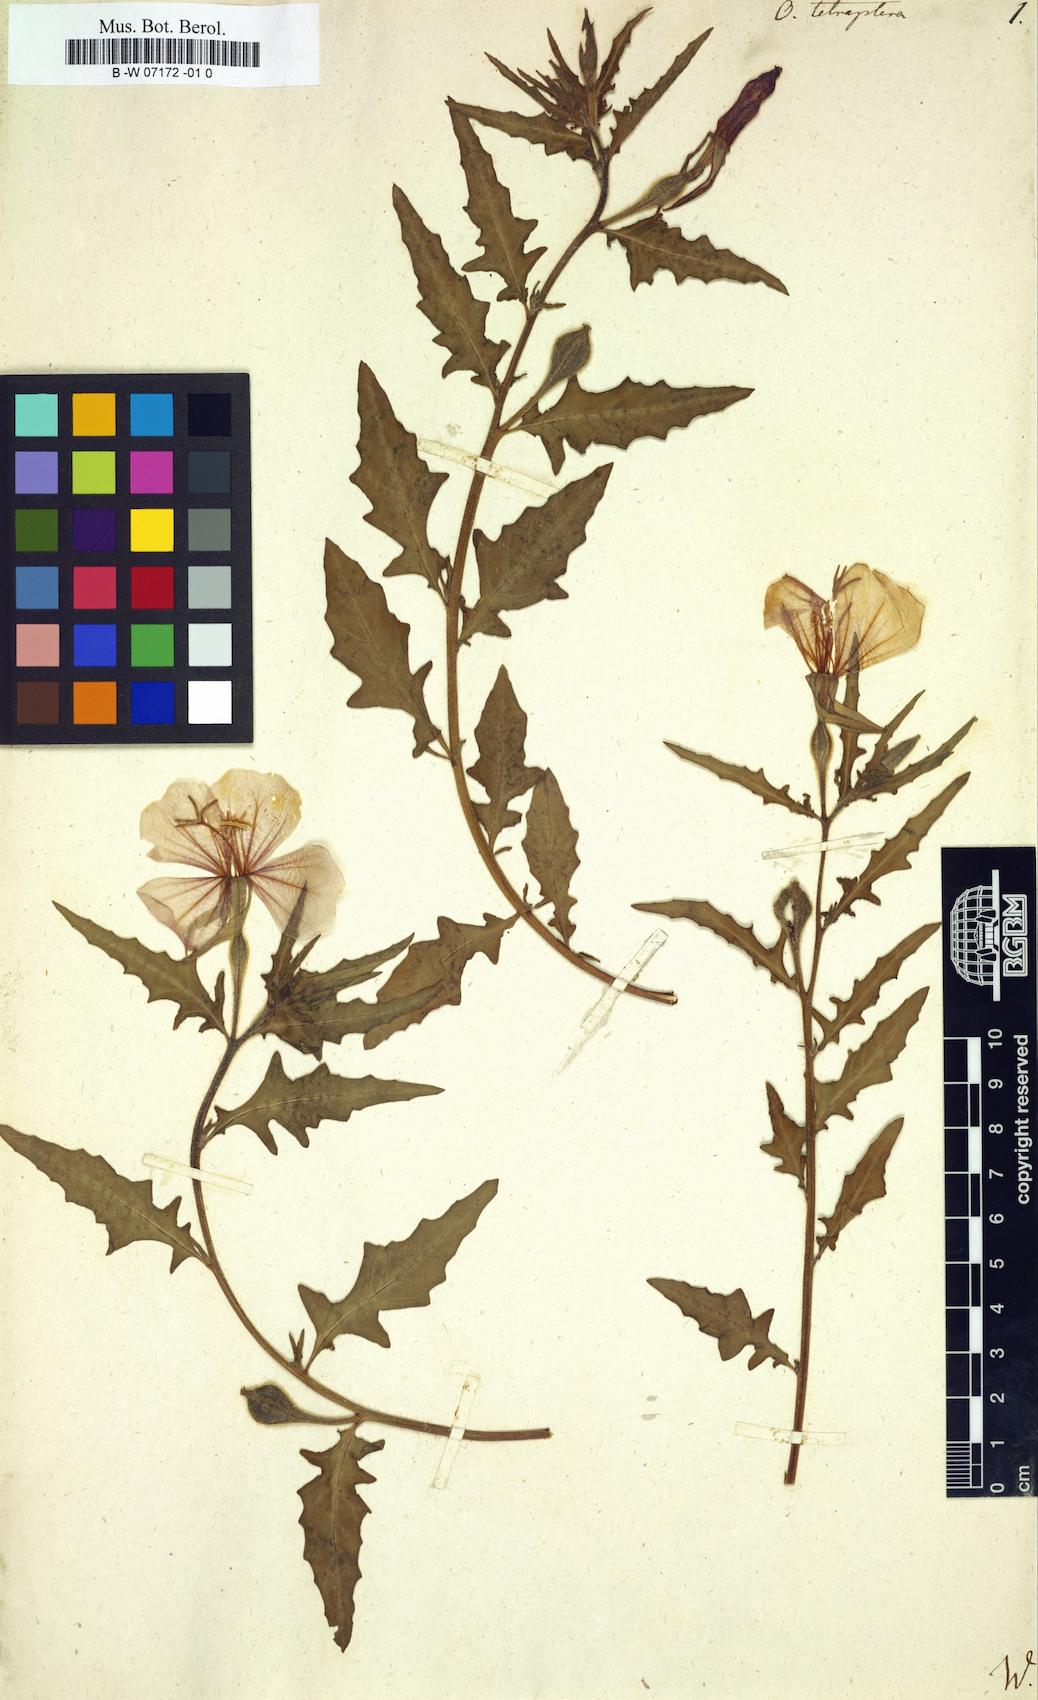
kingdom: Plantae
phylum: Tracheophyta
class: Magnoliopsida
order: Myrtales
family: Onagraceae
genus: Oenothera
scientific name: Oenothera tetraptera
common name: Four-wing evening-primrose
